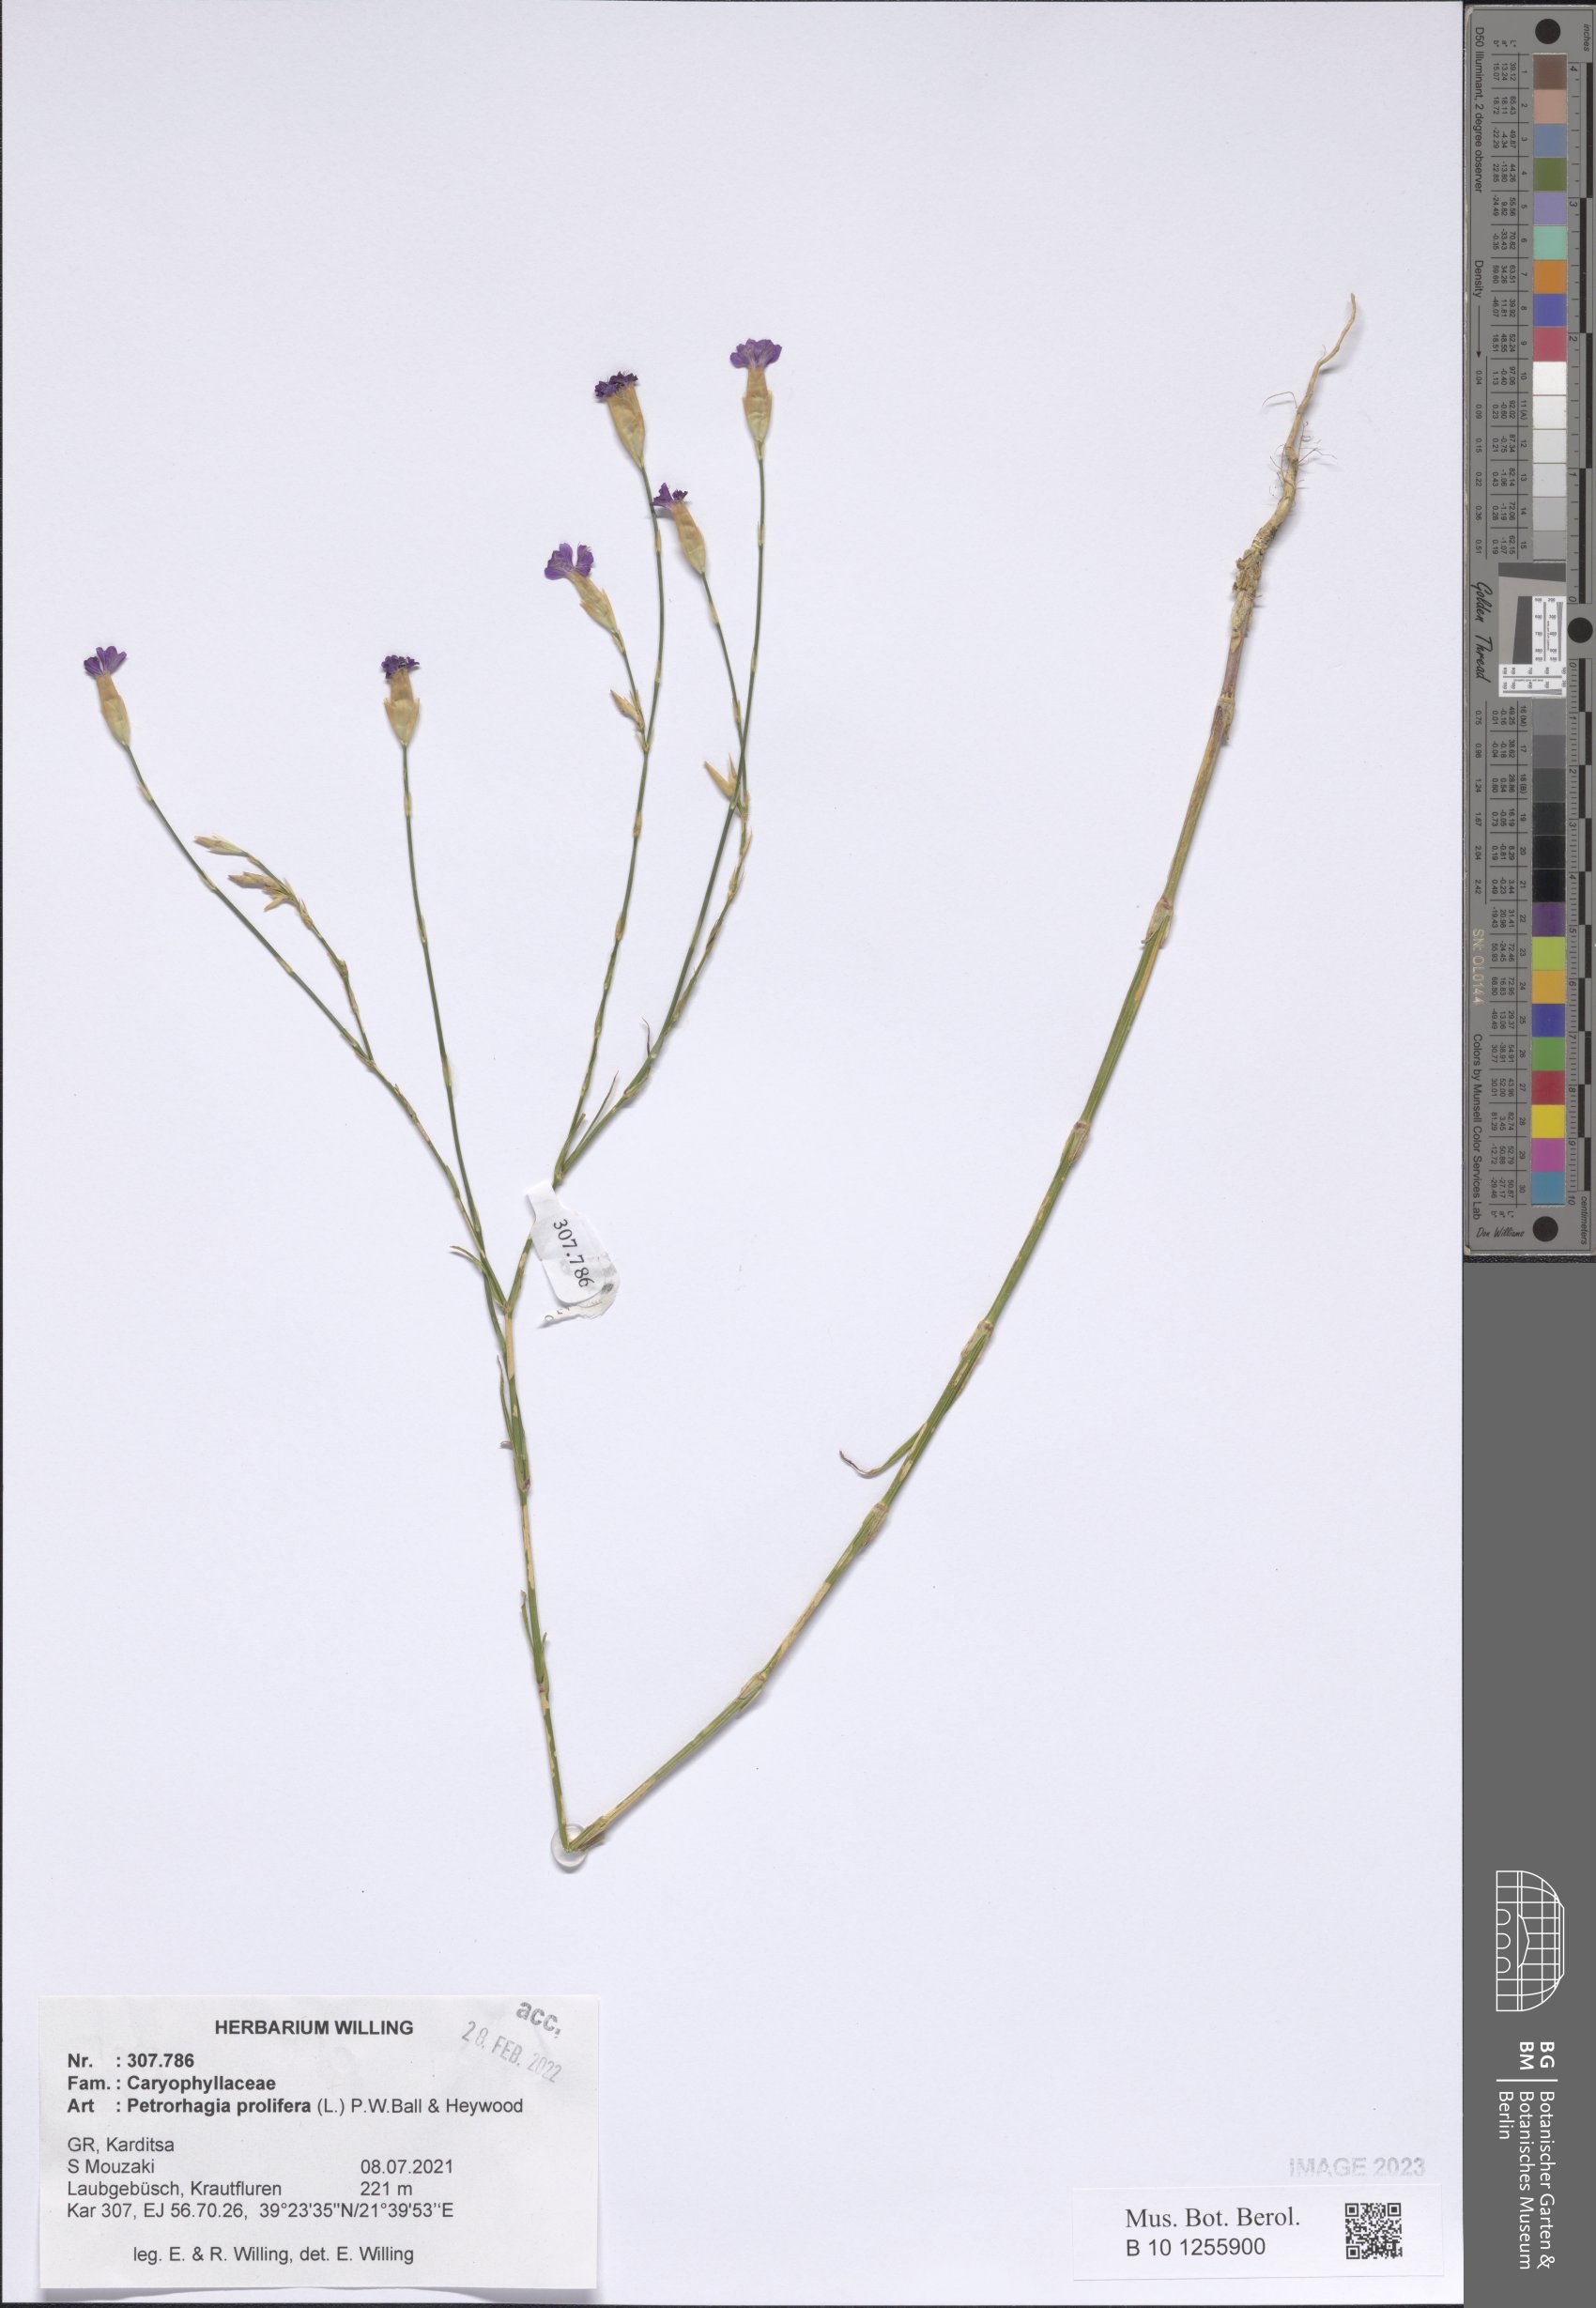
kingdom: Plantae
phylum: Tracheophyta
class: Magnoliopsida
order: Caryophyllales
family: Caryophyllaceae
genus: Petrorhagia
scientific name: Petrorhagia prolifera
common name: Proliferous pink
